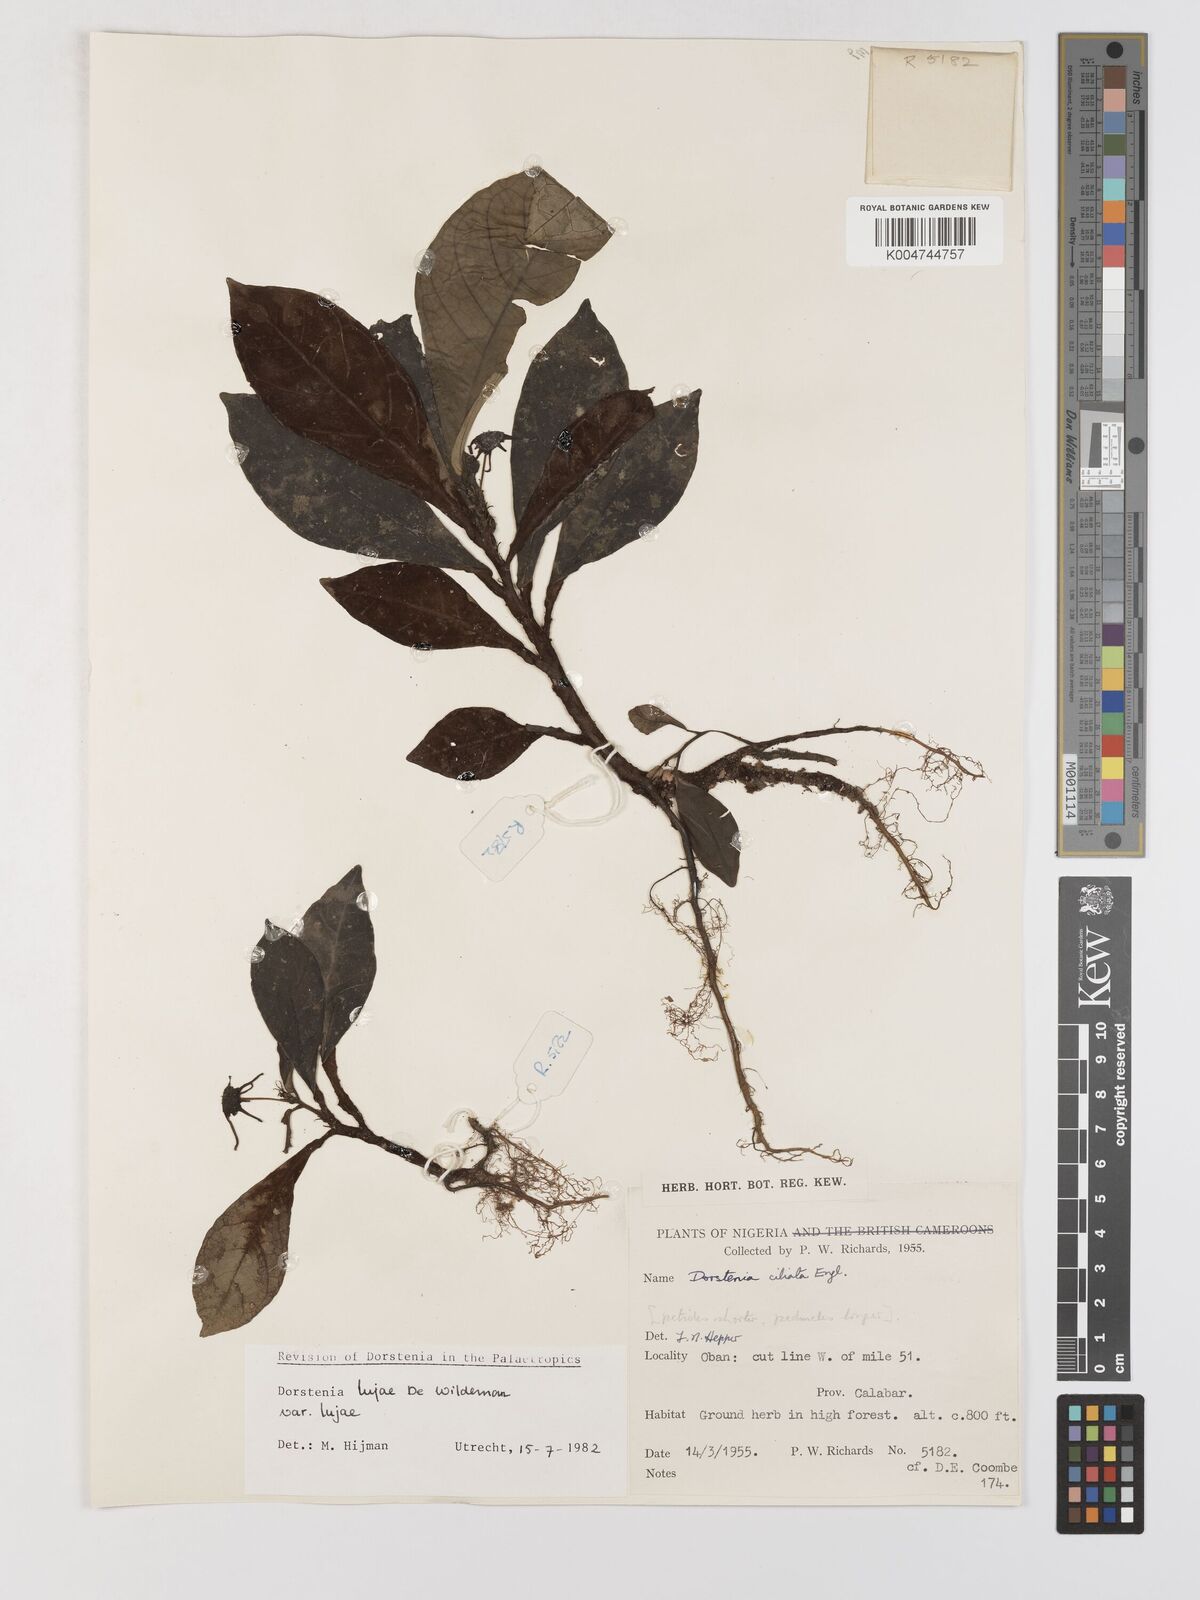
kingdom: Plantae
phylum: Tracheophyta
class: Magnoliopsida
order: Rosales
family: Moraceae
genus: Dorstenia
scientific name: Dorstenia lujae
